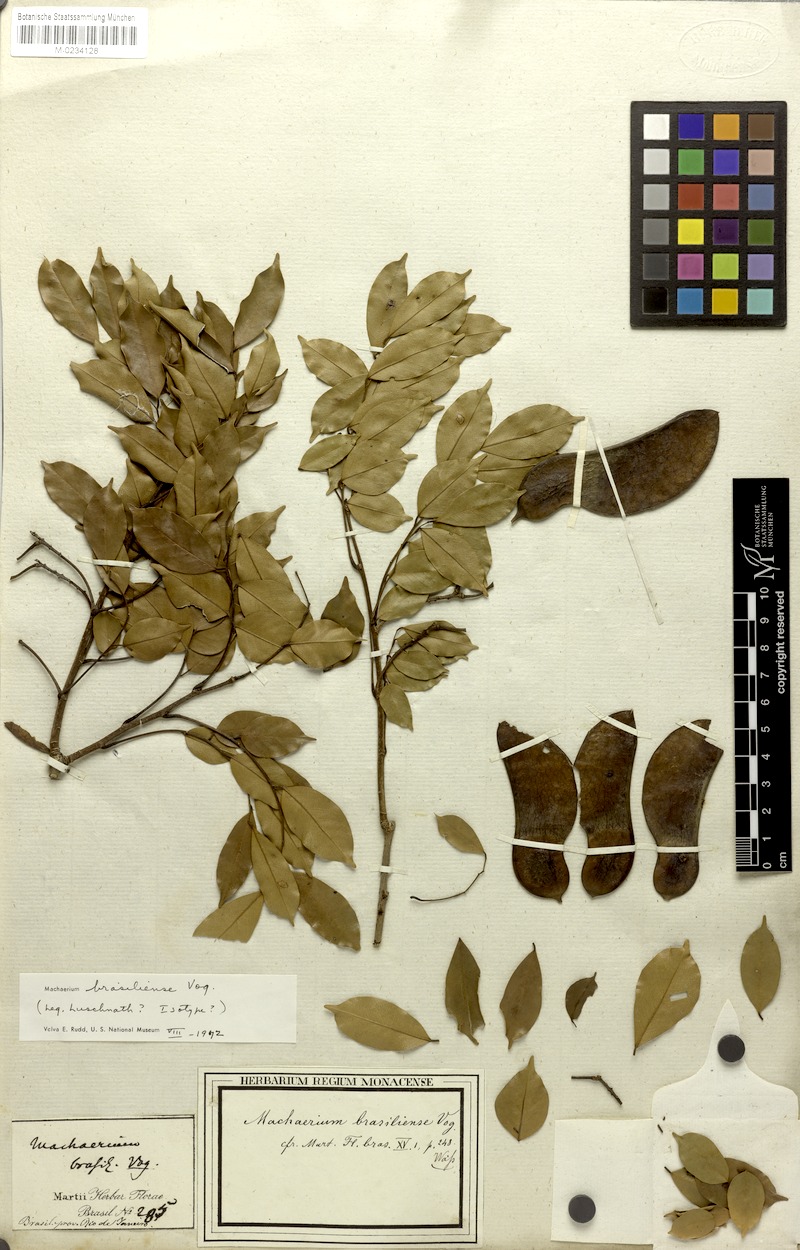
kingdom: Plantae
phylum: Tracheophyta
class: Magnoliopsida
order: Fabales
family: Fabaceae
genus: Machaerium
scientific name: Machaerium brasiliense
